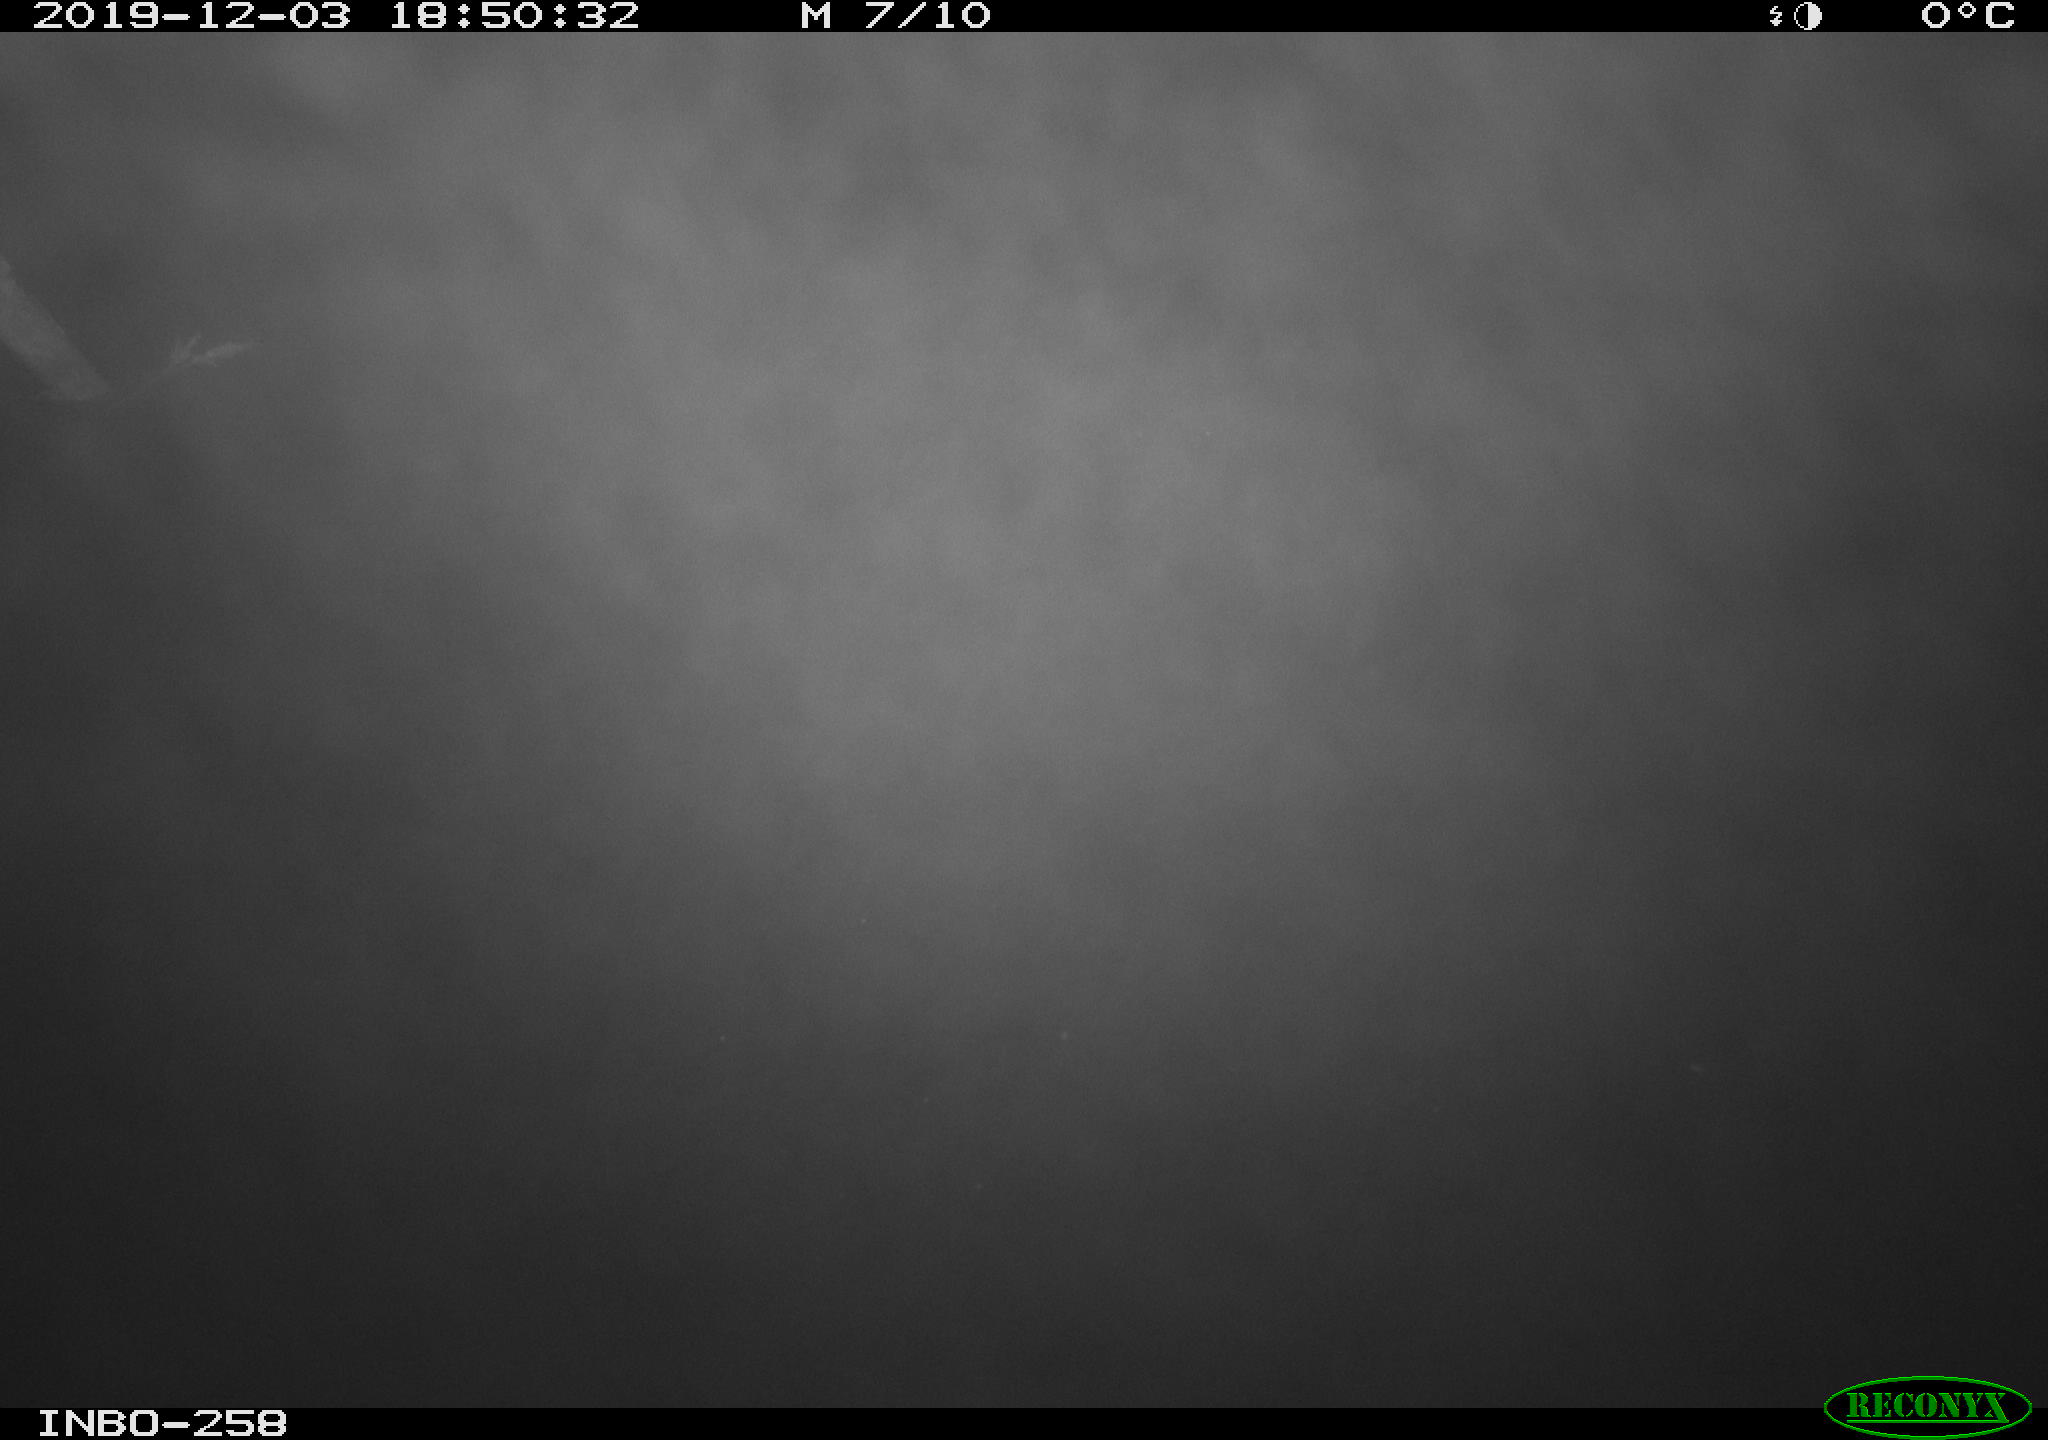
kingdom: Animalia
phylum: Chordata
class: Aves
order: Anseriformes
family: Anatidae
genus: Anas
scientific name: Anas platyrhynchos
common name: Mallard
